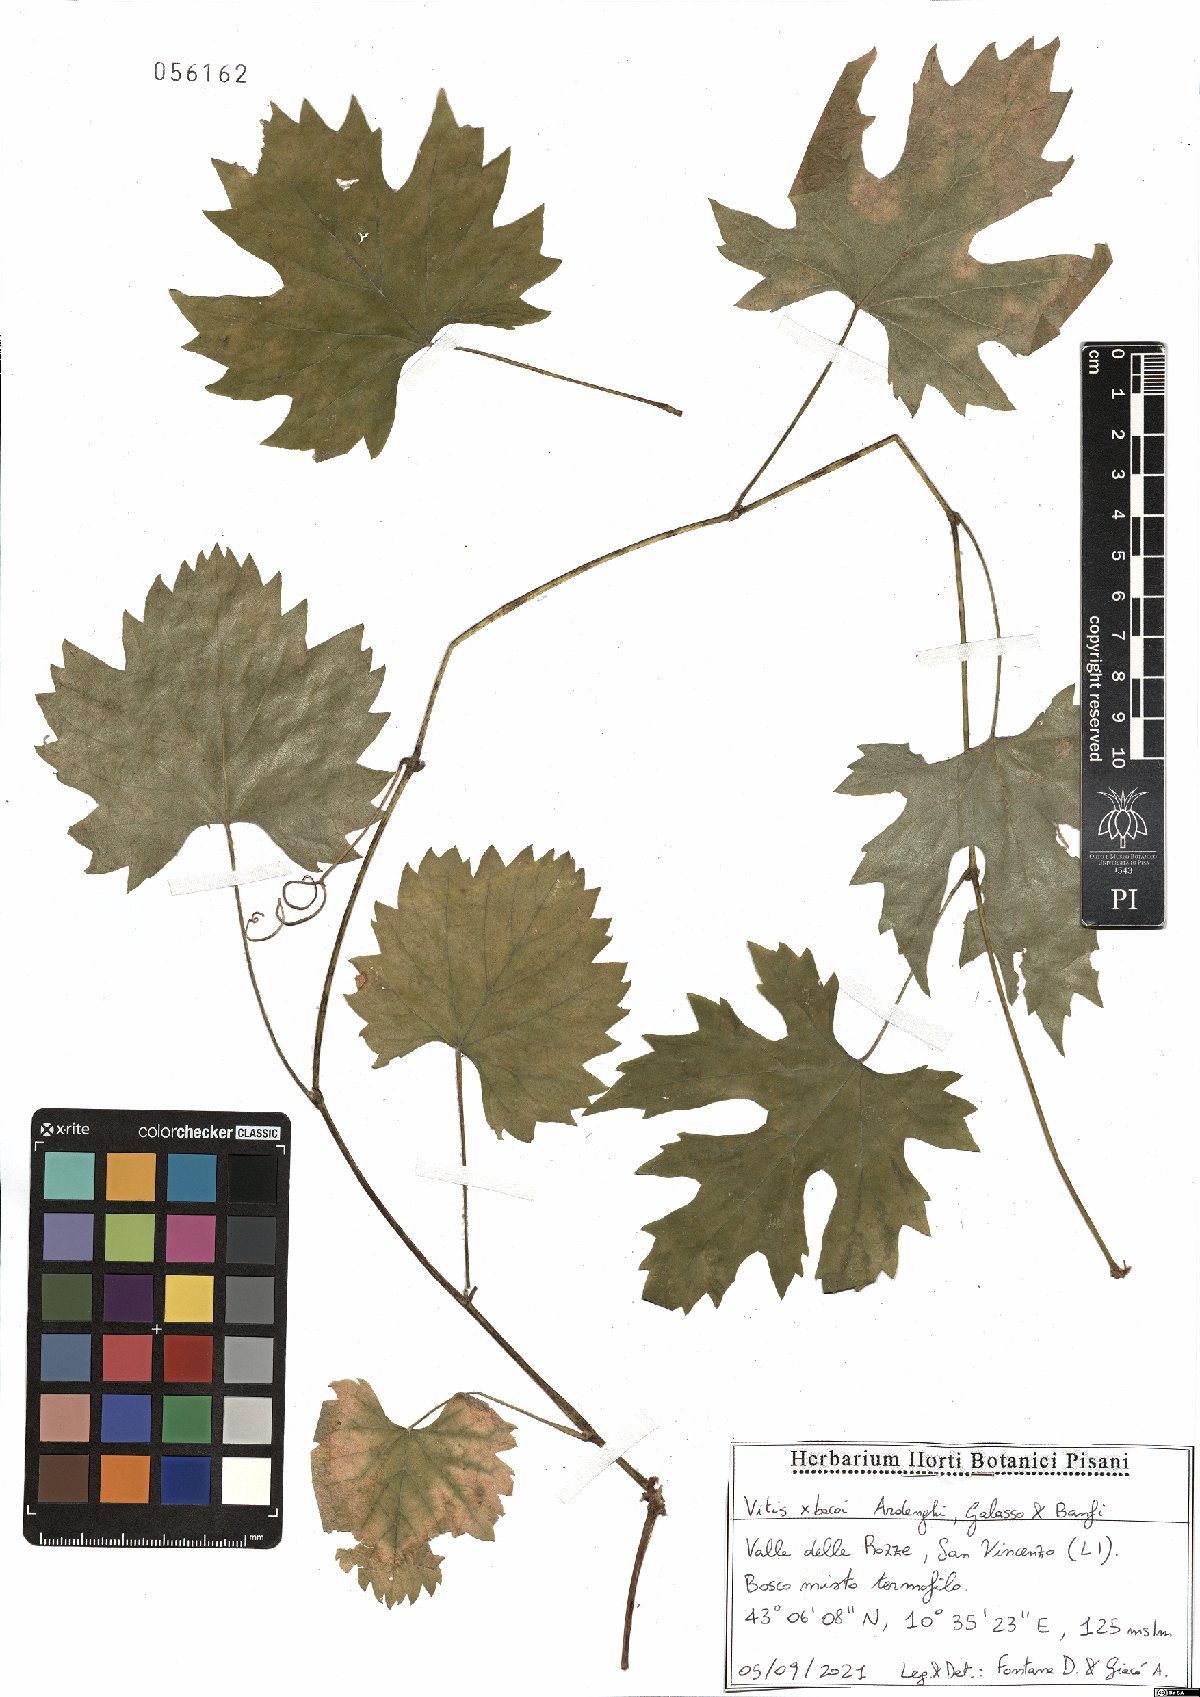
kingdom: Plantae
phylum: Tracheophyta
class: Magnoliopsida
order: Vitales
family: Vitaceae
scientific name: Vitaceae
